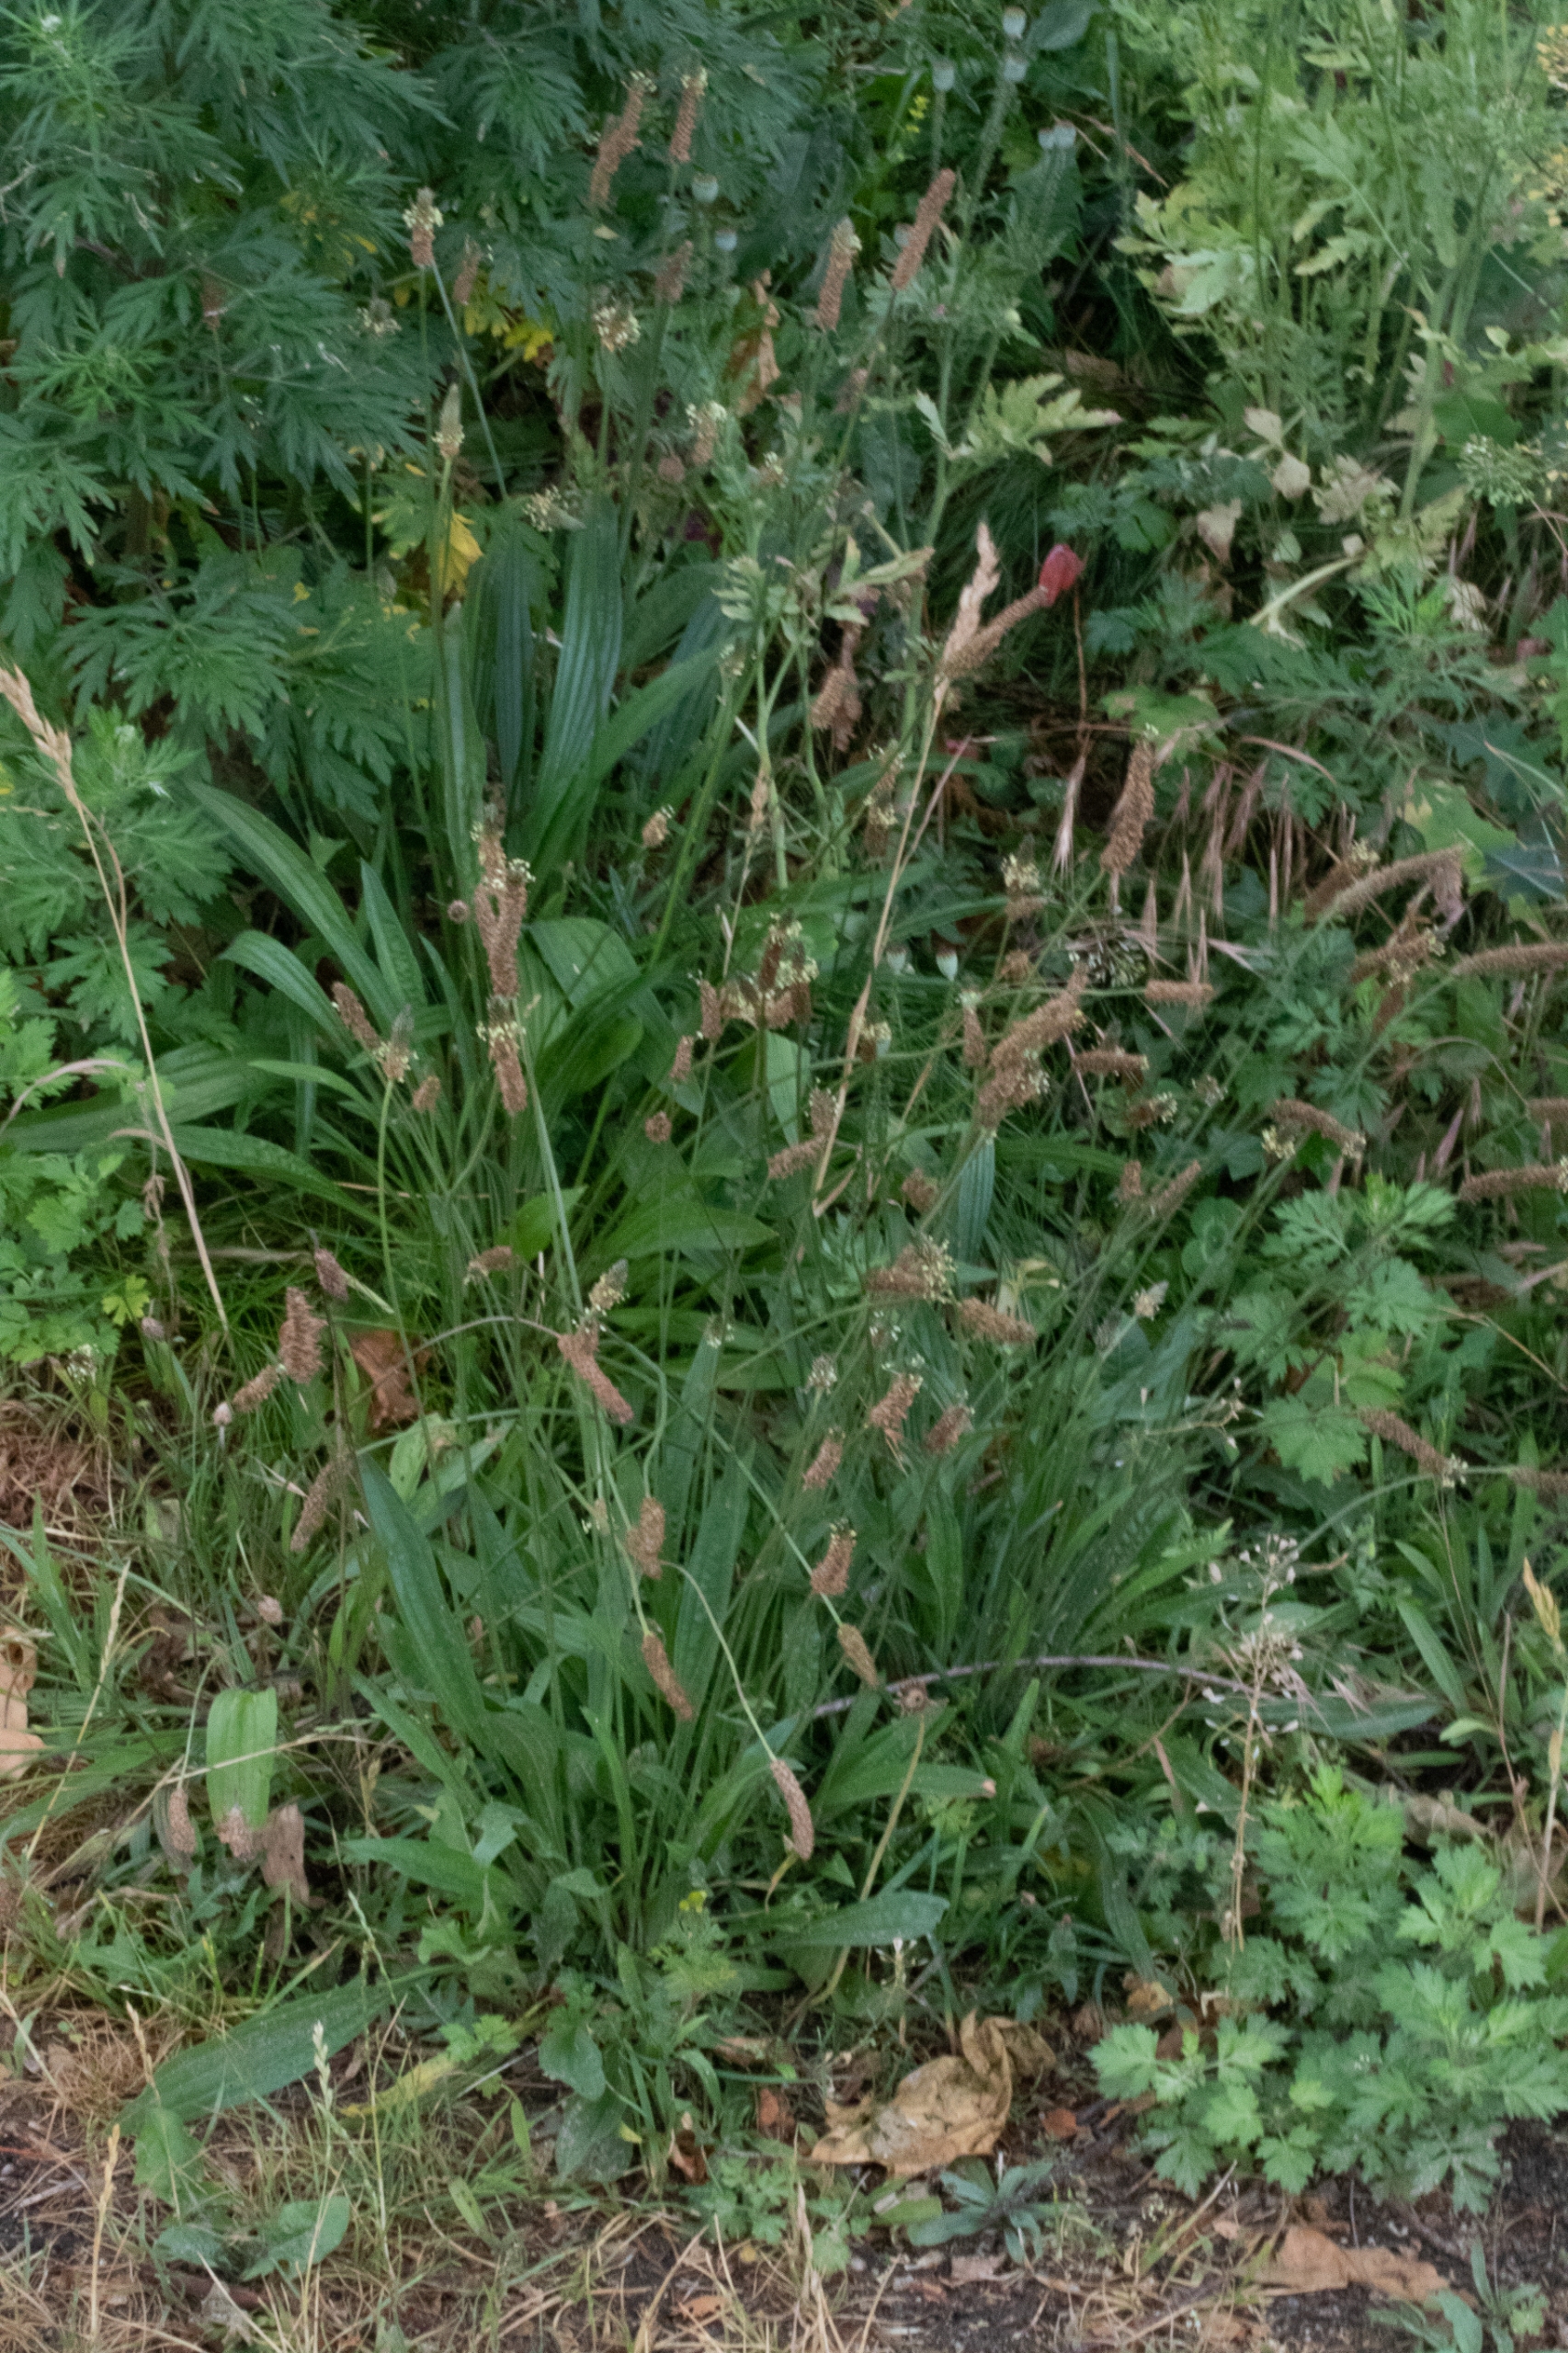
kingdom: Plantae
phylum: Tracheophyta
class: Magnoliopsida
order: Lamiales
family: Plantaginaceae
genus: Plantago
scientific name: Plantago lanceolata
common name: Lancet-vejbred
